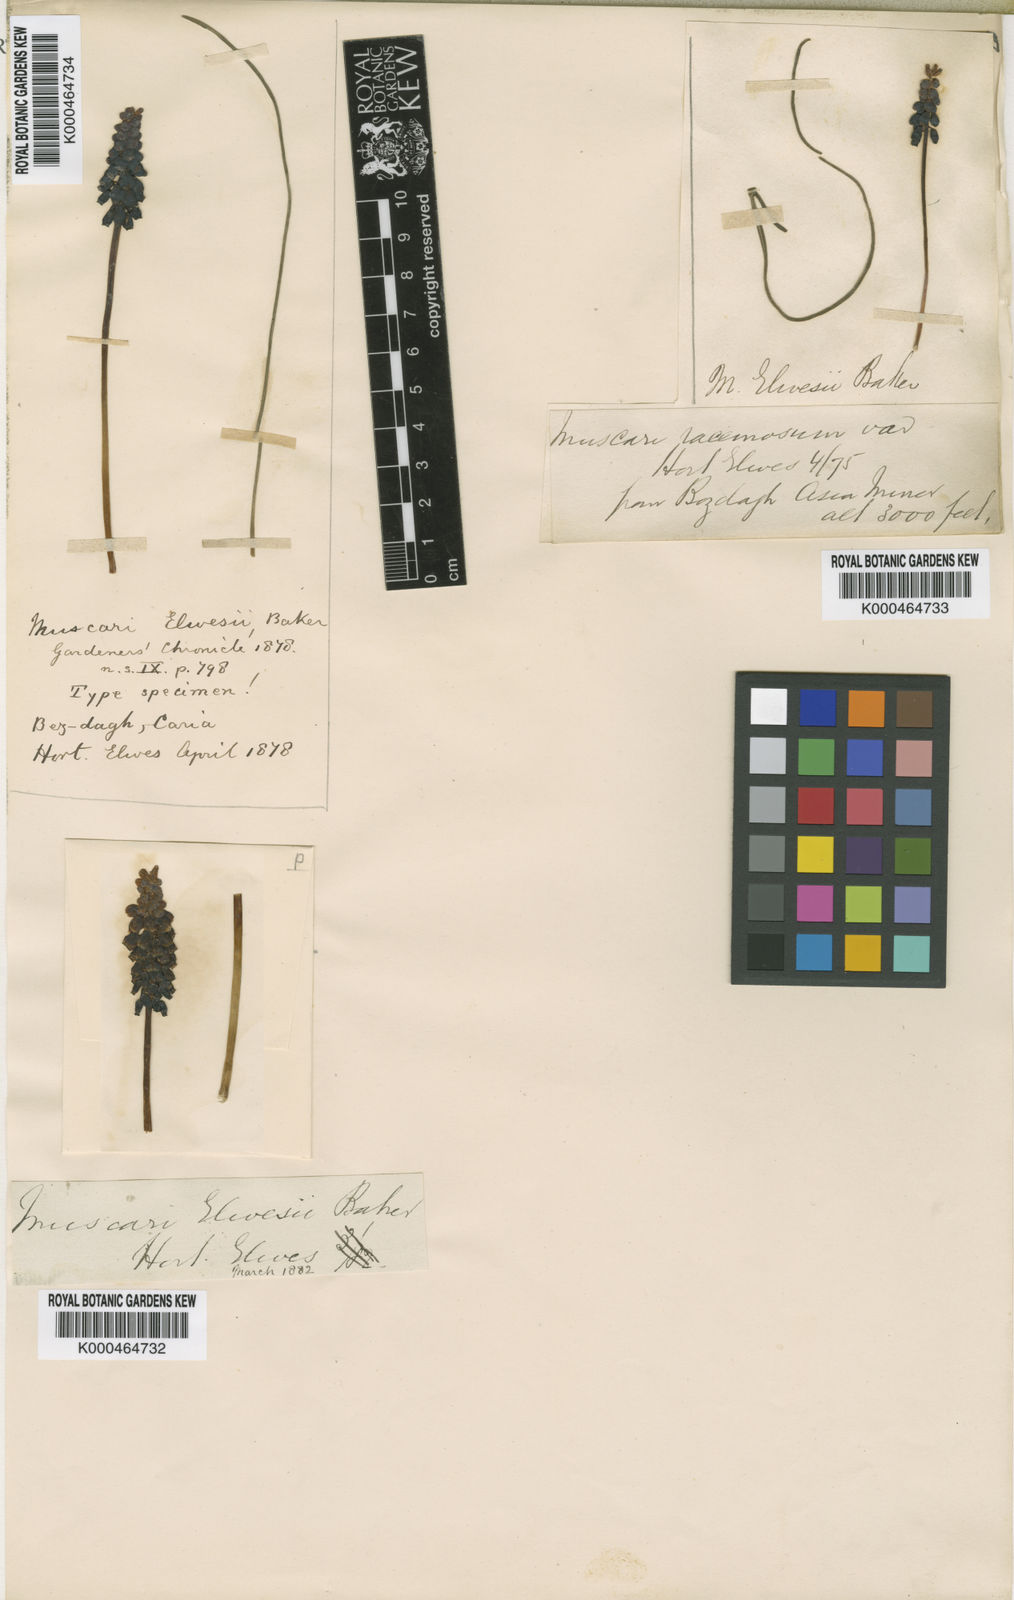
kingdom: Plantae
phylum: Tracheophyta
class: Liliopsida
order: Asparagales
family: Asparagaceae
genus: Muscari
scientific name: Muscari neglectum
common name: Grape-hyacinth
